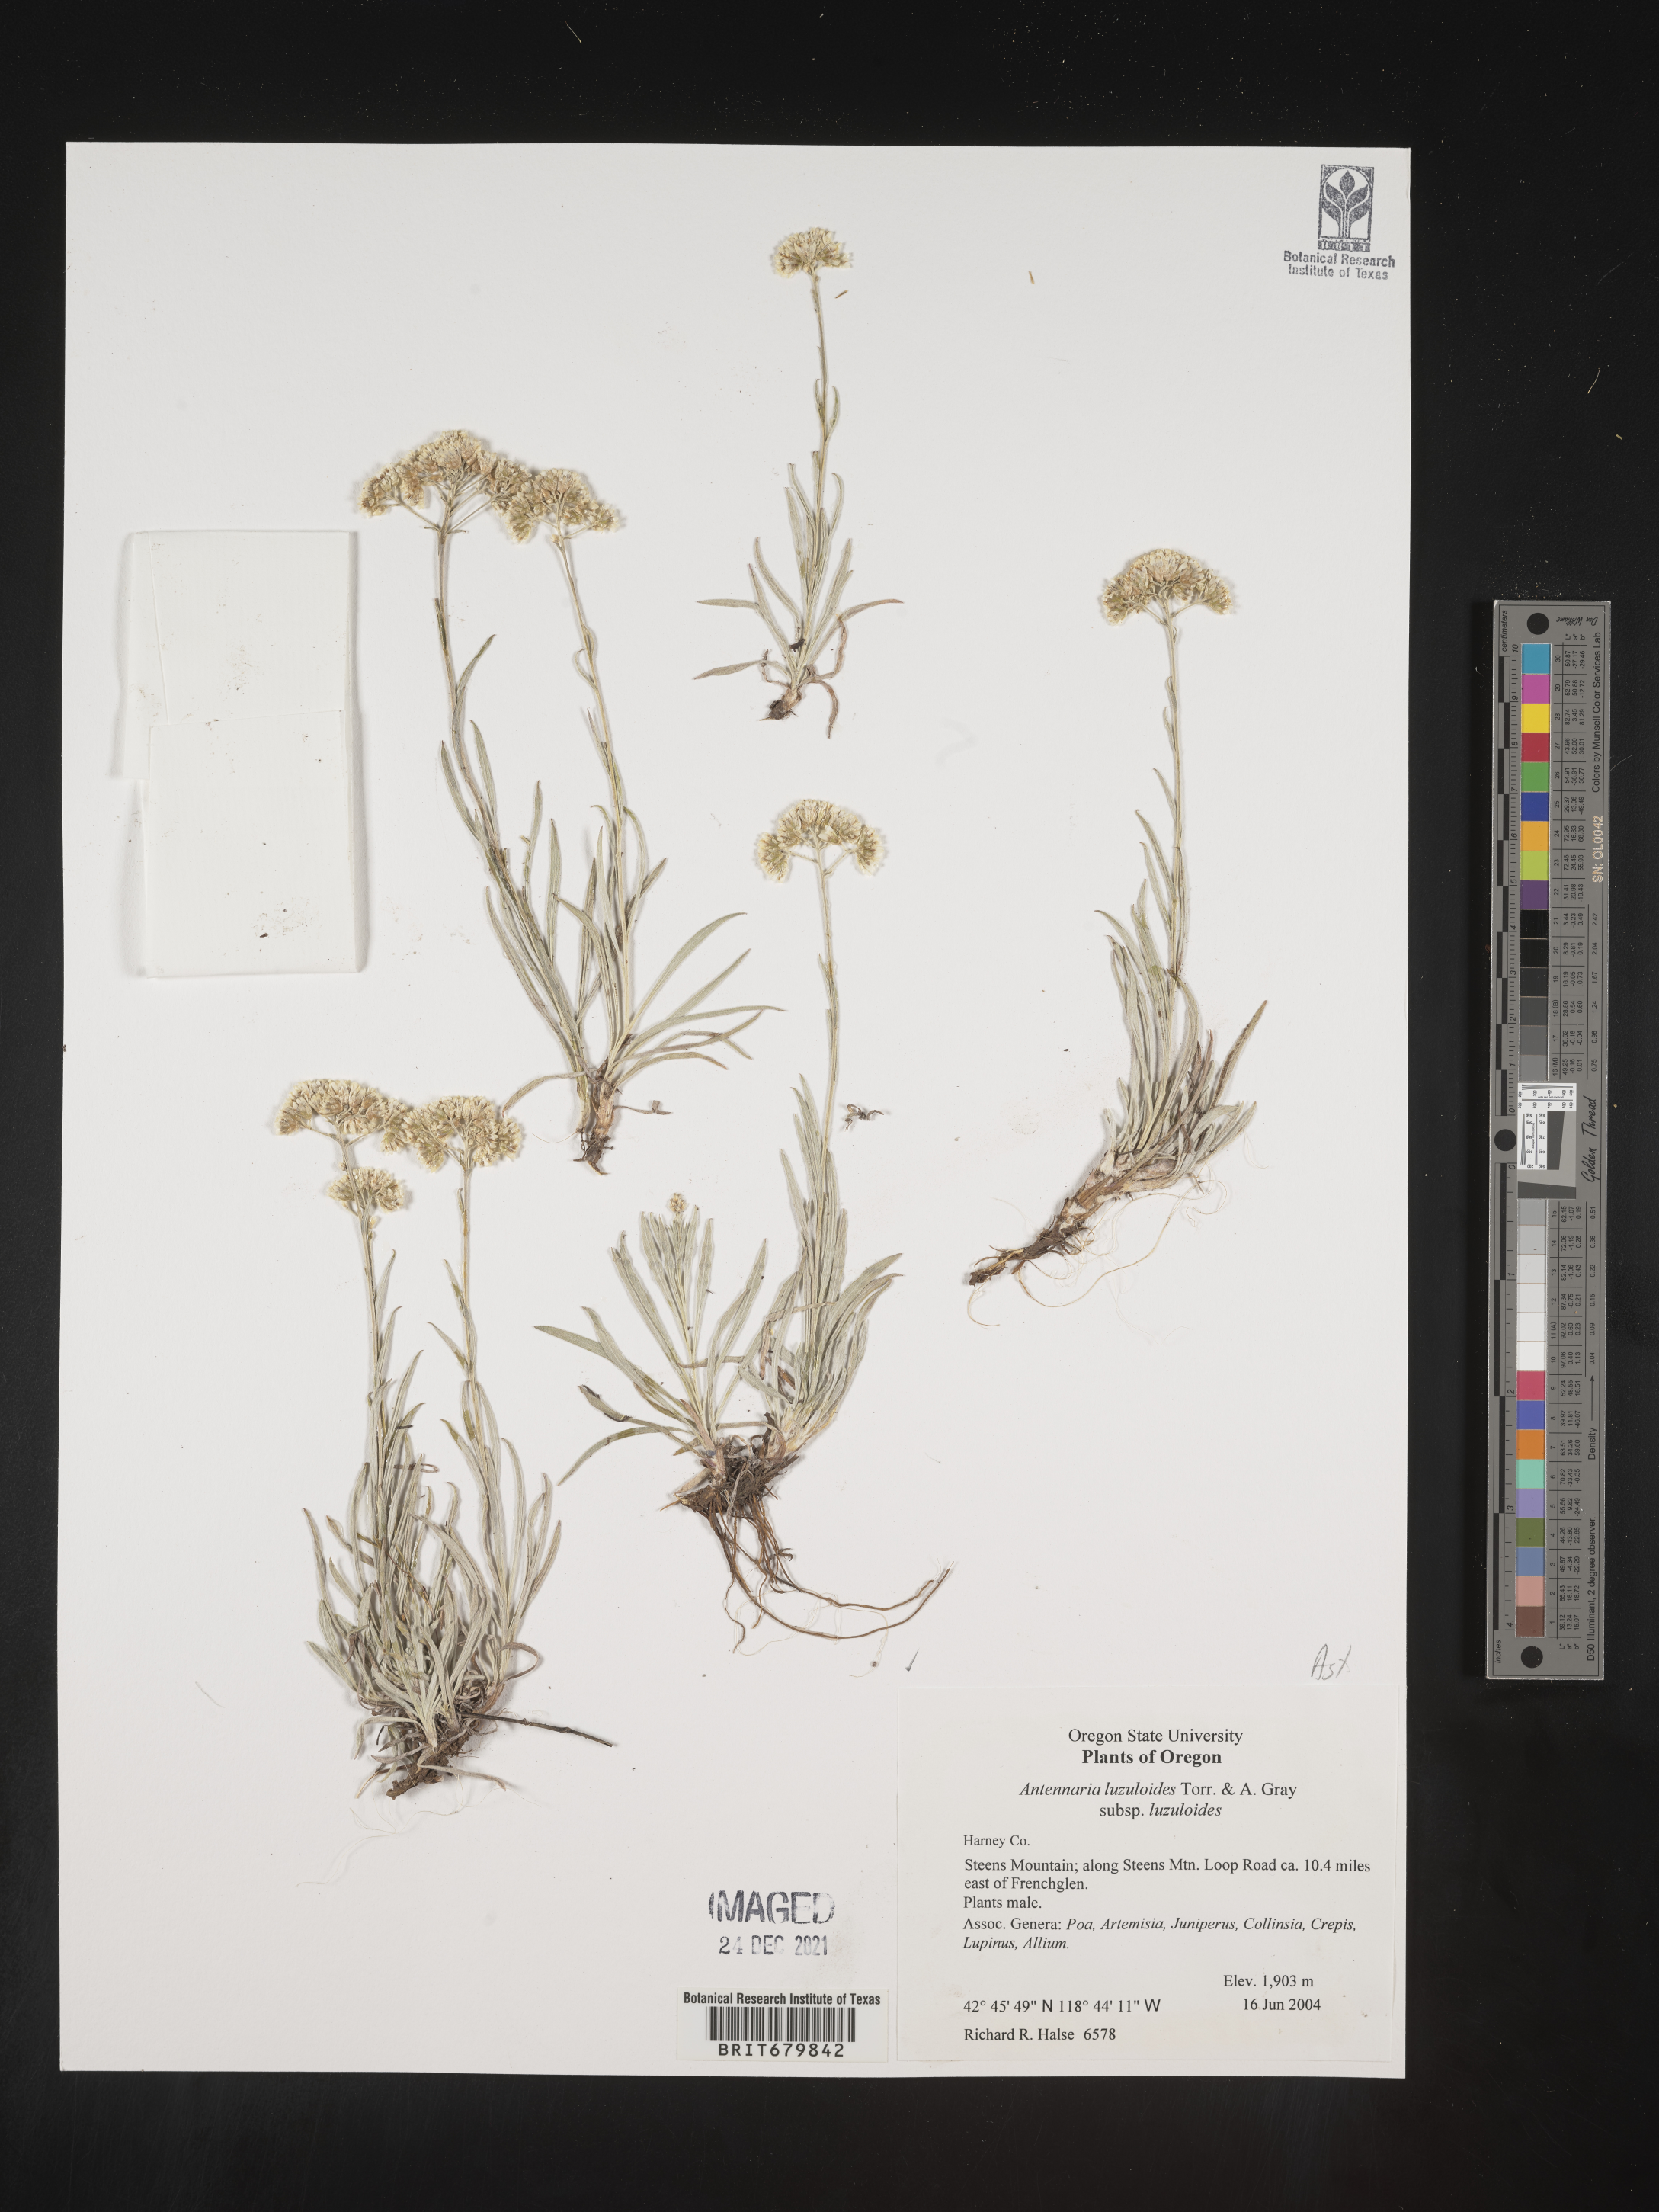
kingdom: Plantae
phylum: Tracheophyta
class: Magnoliopsida
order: Asterales
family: Asteraceae
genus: Antennaria
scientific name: Antennaria luzuloides
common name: Rush pussytoes
